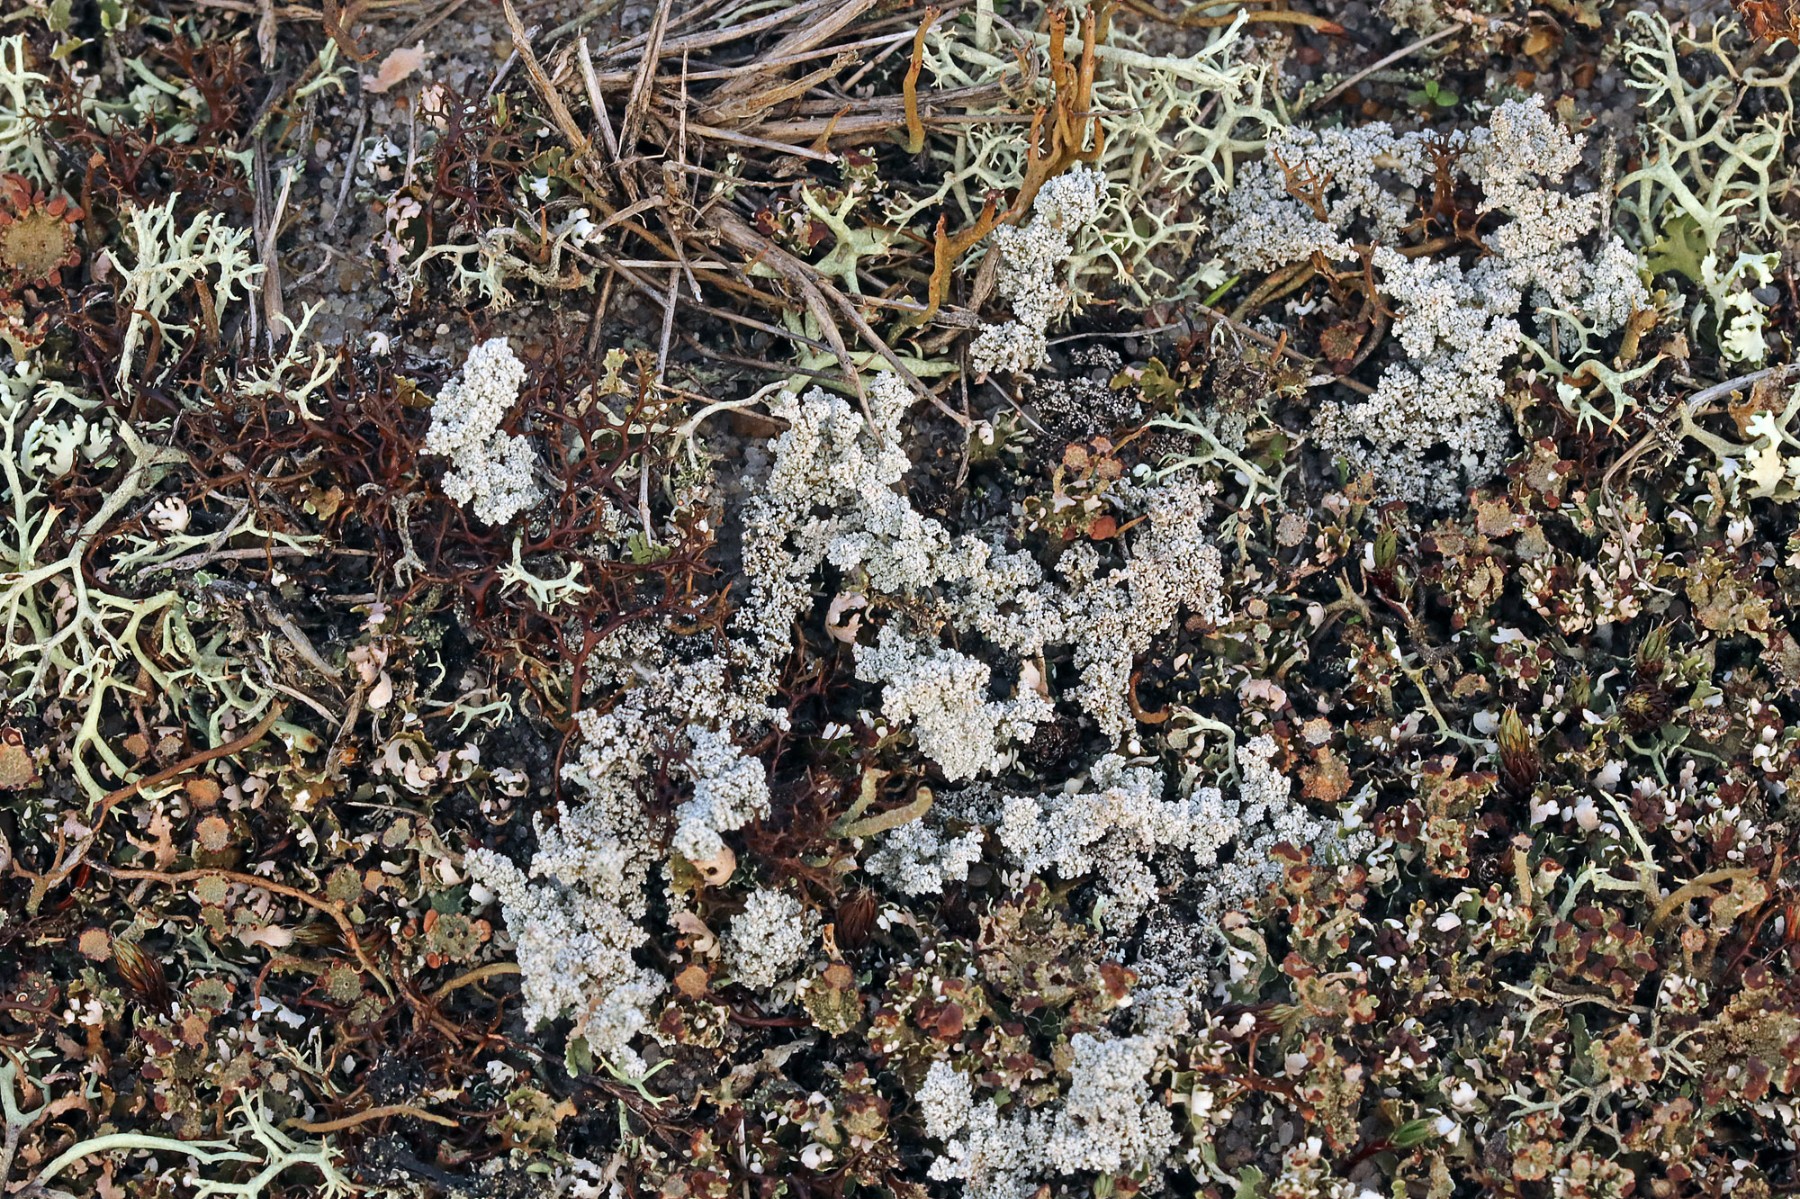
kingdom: Fungi
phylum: Ascomycota
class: Lecanoromycetes
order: Lecanorales
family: Stereocaulaceae
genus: Stereocaulon
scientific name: Stereocaulon saxatile
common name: klit-korallav
